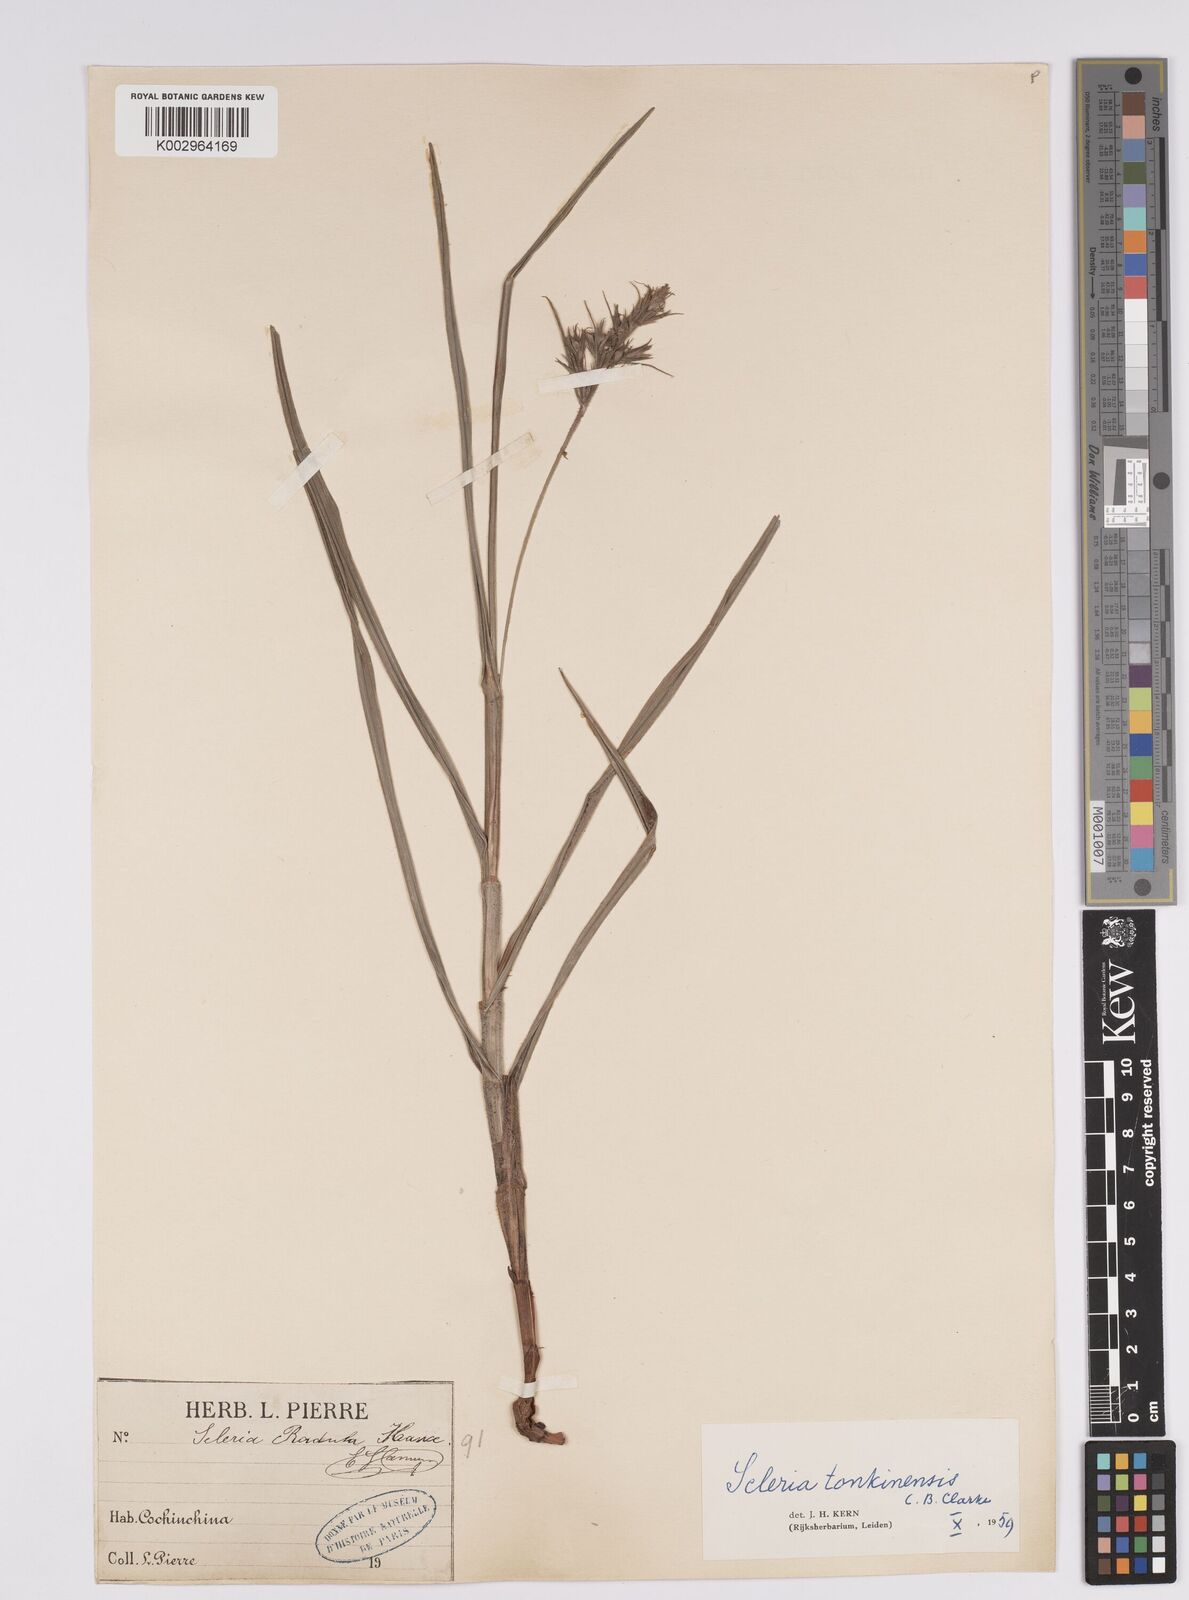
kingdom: Plantae
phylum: Tracheophyta
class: Liliopsida
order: Poales
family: Cyperaceae
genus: Scleria
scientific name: Scleria tonkinensis
